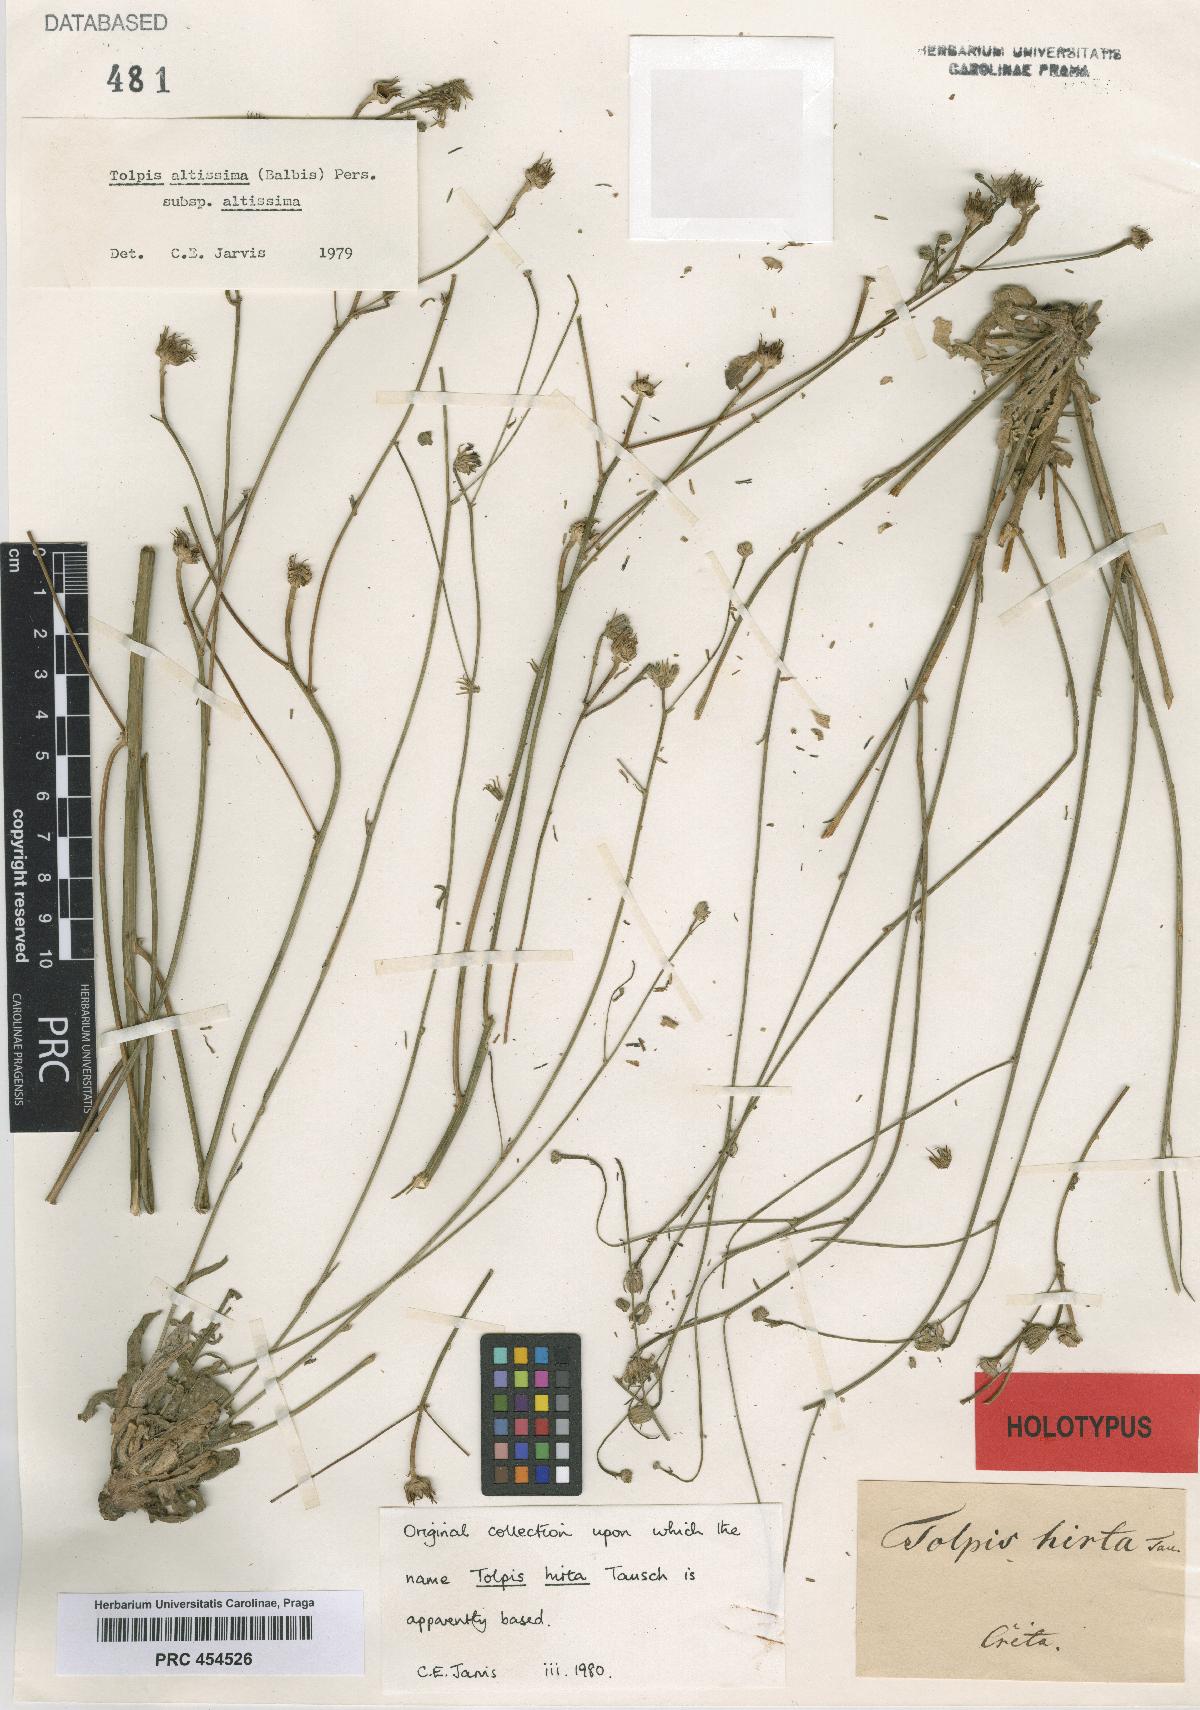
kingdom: Plantae
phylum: Tracheophyta
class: Magnoliopsida
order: Asterales
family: Asteraceae
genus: Tolpis
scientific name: Tolpis virgata
